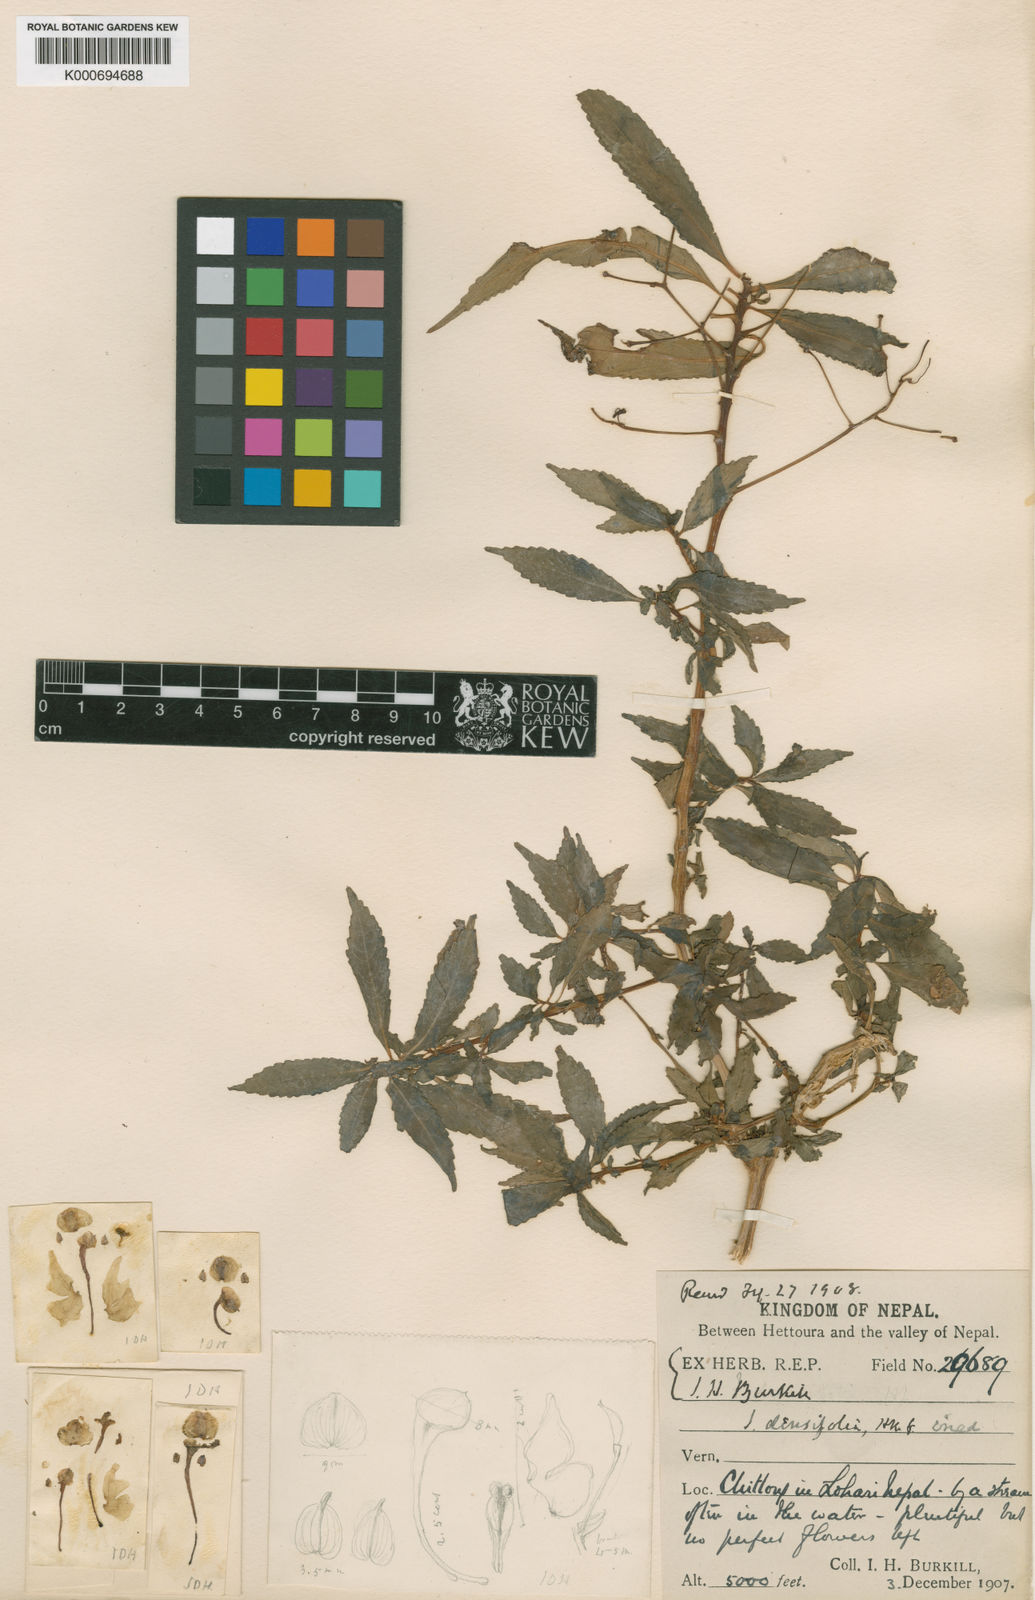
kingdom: Plantae
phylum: Tracheophyta
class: Magnoliopsida
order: Ericales
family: Balsaminaceae
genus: Impatiens
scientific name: Impatiens densifolia
